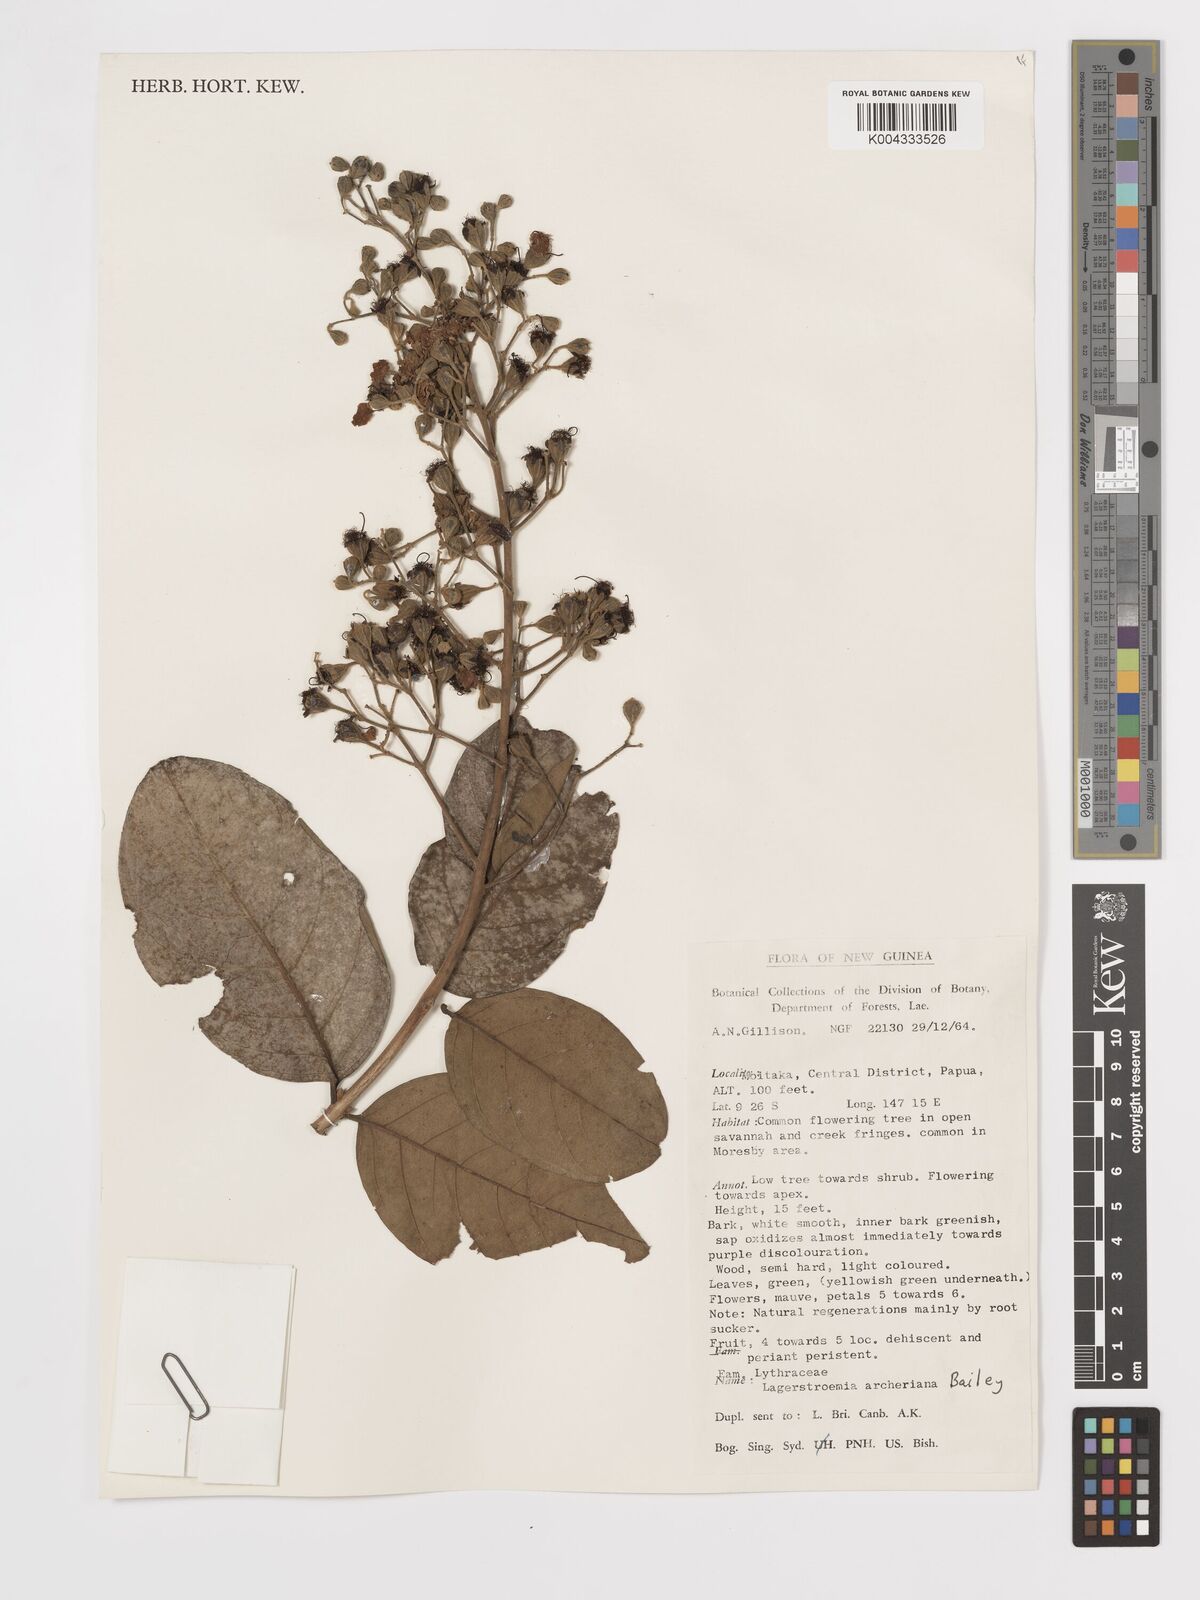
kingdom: Plantae
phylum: Tracheophyta
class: Magnoliopsida
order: Myrtales
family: Lythraceae
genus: Lagerstroemia
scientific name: Lagerstroemia engleriana
